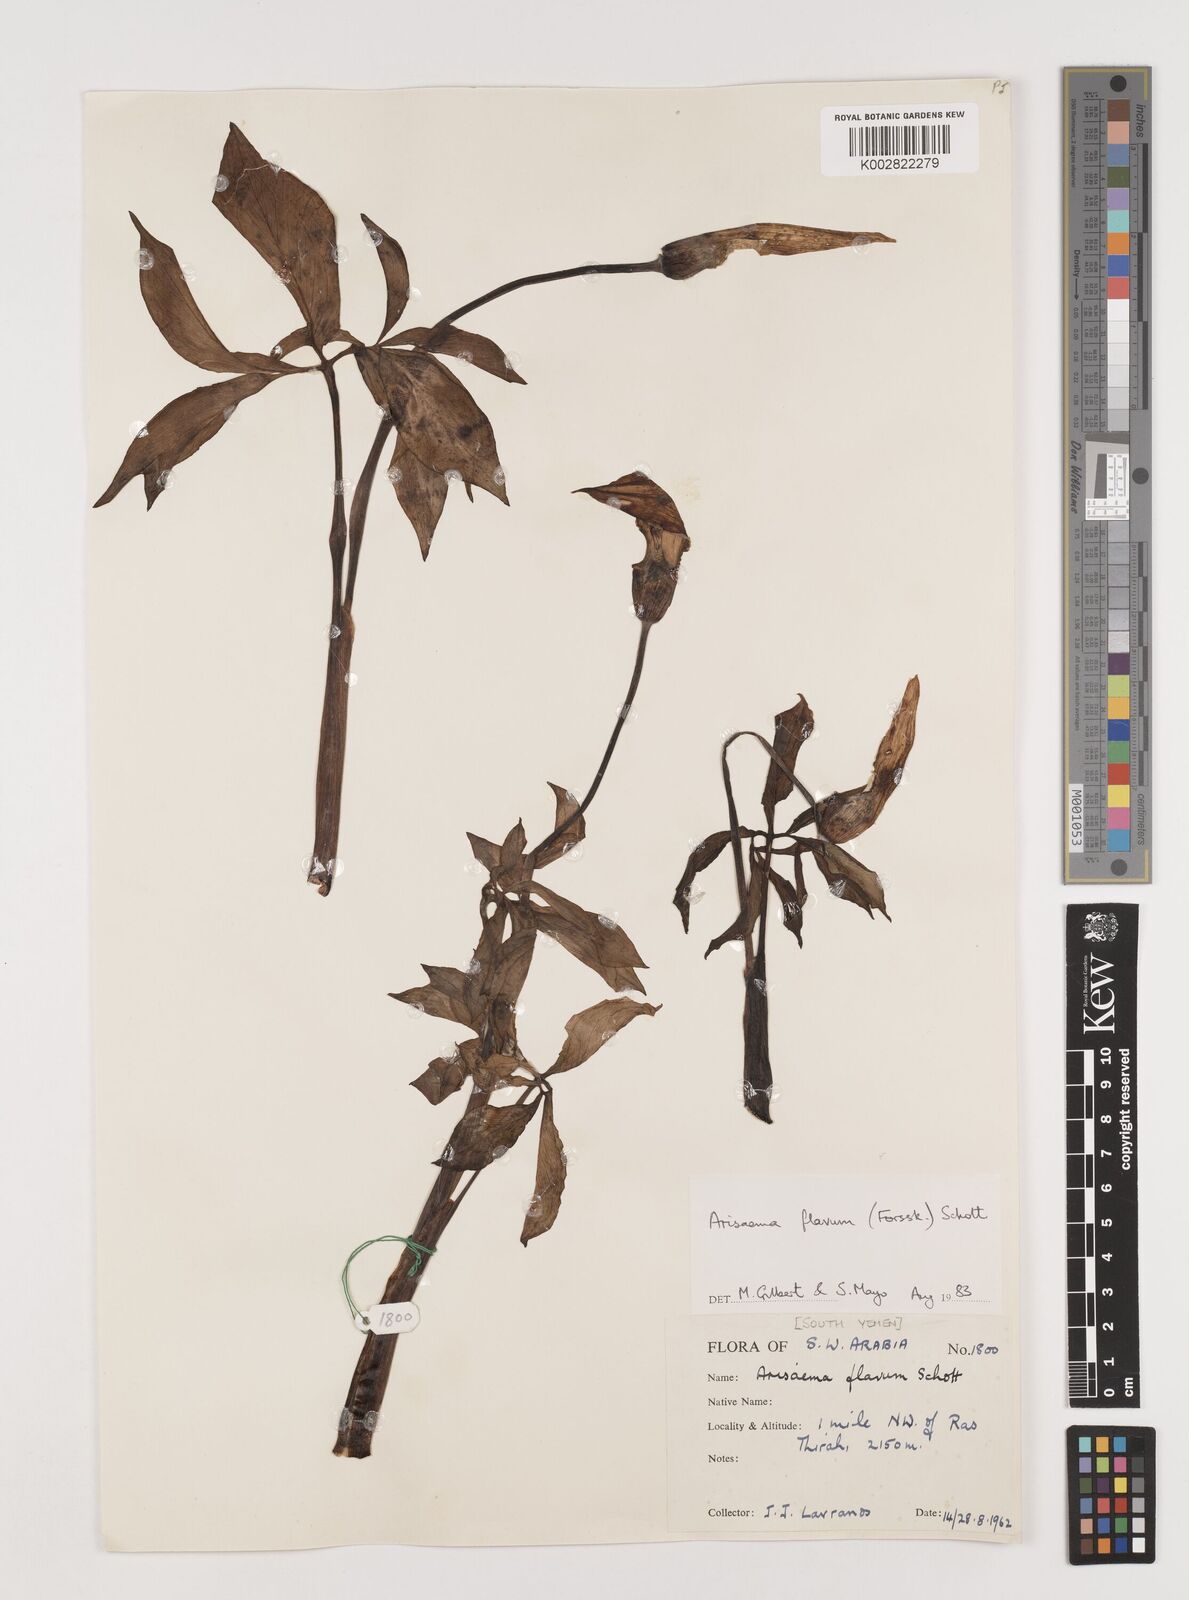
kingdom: Plantae
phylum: Tracheophyta
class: Liliopsida
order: Alismatales
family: Araceae
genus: Arisaema
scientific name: Arisaema flavum
